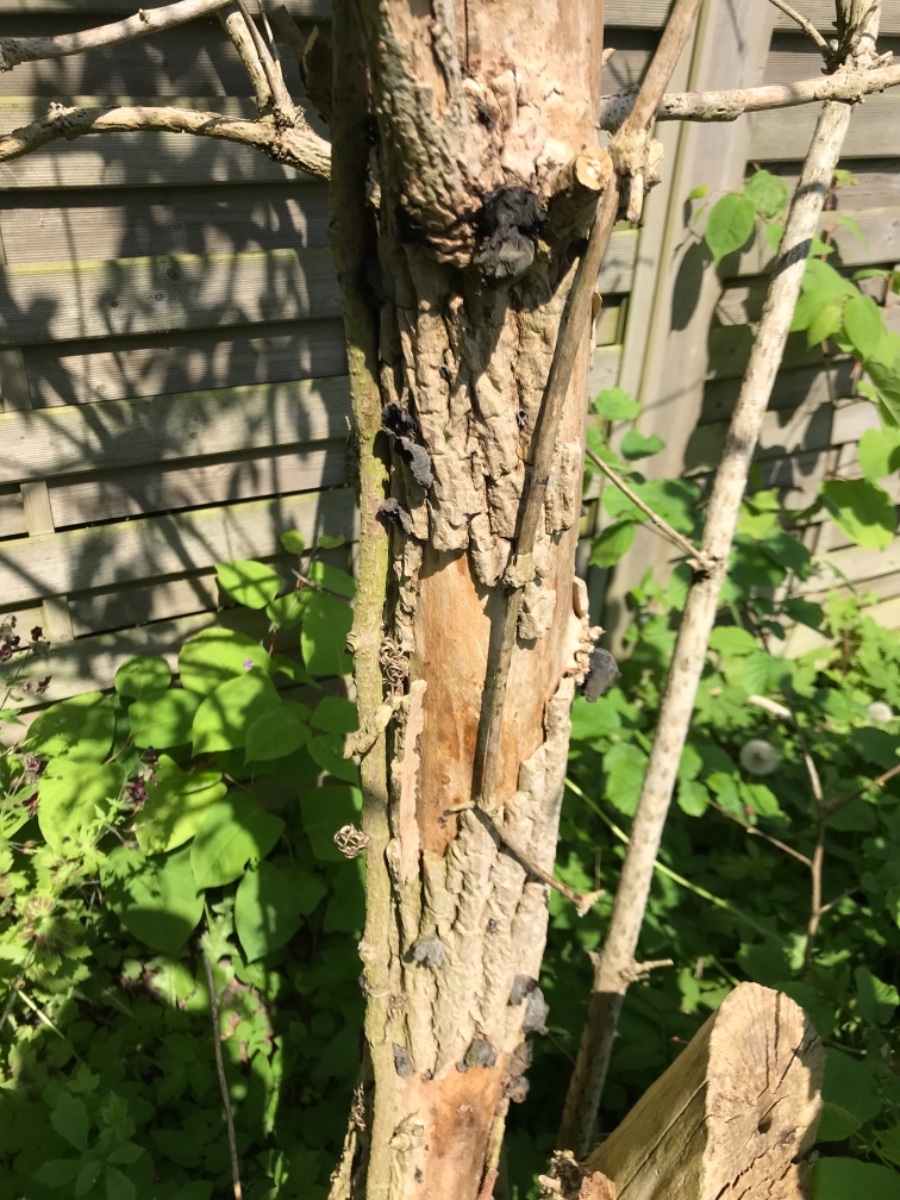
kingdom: Fungi
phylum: Basidiomycota
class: Agaricomycetes
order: Auriculariales
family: Auriculariaceae
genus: Auricularia
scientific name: Auricularia auricula-judae
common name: almindelig judasøre
